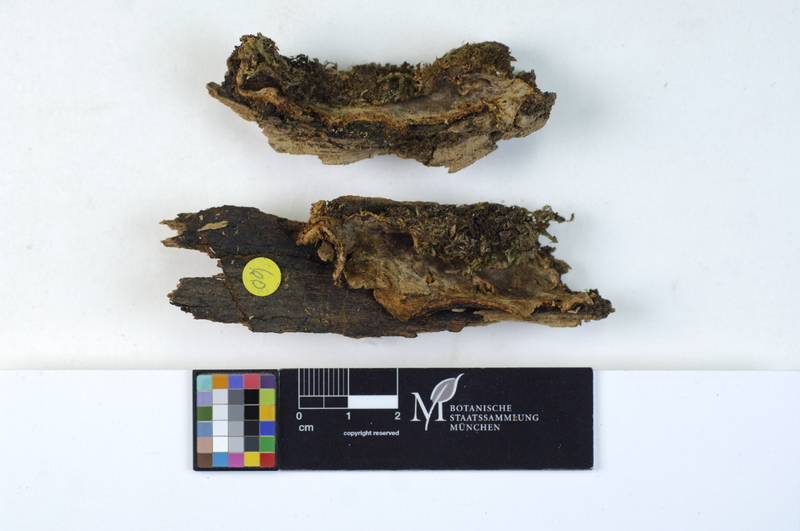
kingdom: Plantae
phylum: Tracheophyta
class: Pinopsida
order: Pinales
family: Pinaceae
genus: Pinus
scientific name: Pinus
